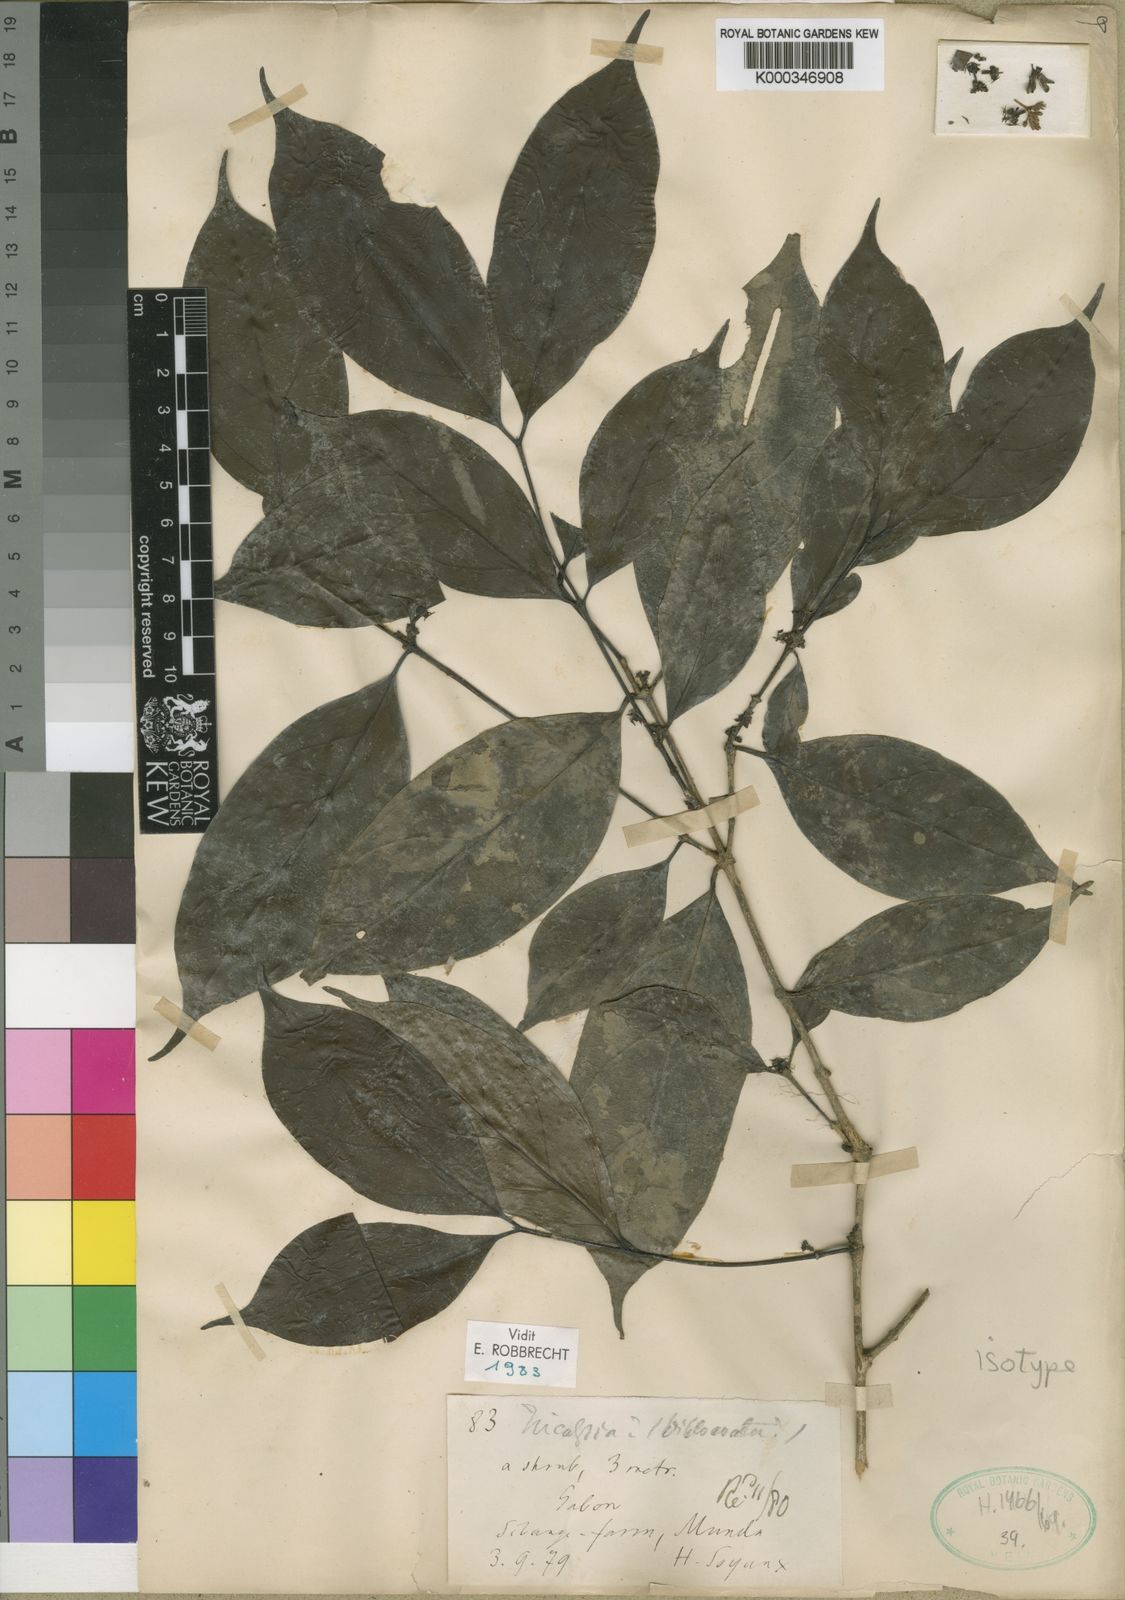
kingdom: Plantae
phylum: Tracheophyta
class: Magnoliopsida
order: Gentianales
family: Rubiaceae
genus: Tricalysia
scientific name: Tricalysia
